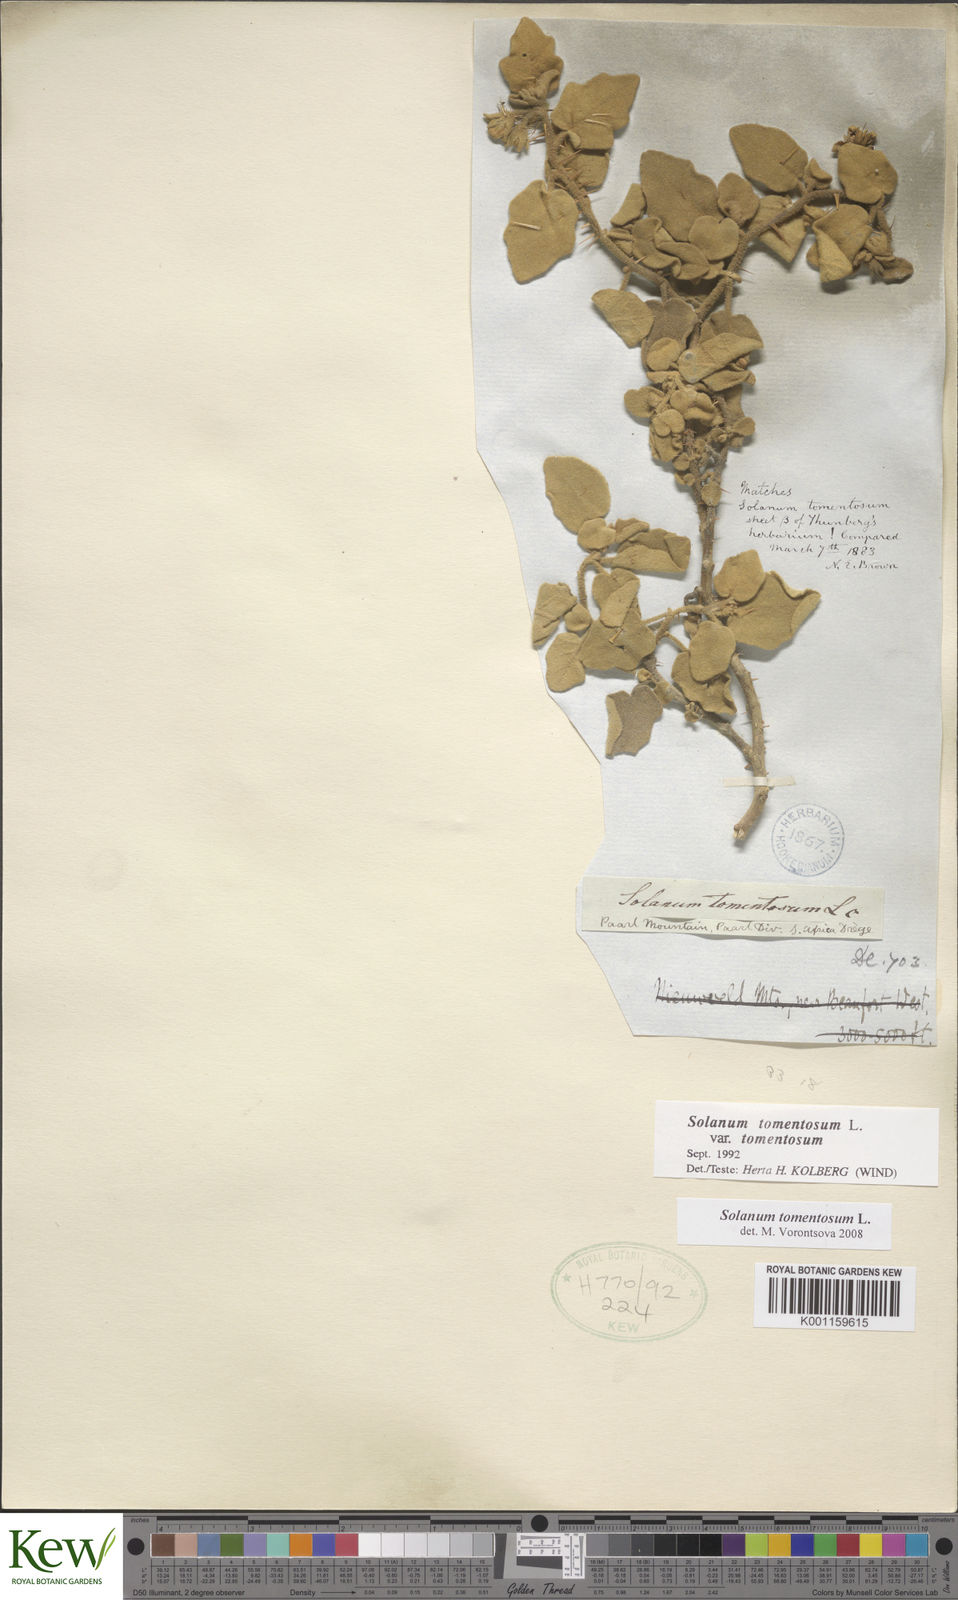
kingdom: Plantae
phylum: Tracheophyta
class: Magnoliopsida
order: Solanales
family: Solanaceae
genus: Solanum
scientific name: Solanum tomentosum
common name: Wild aubergine
